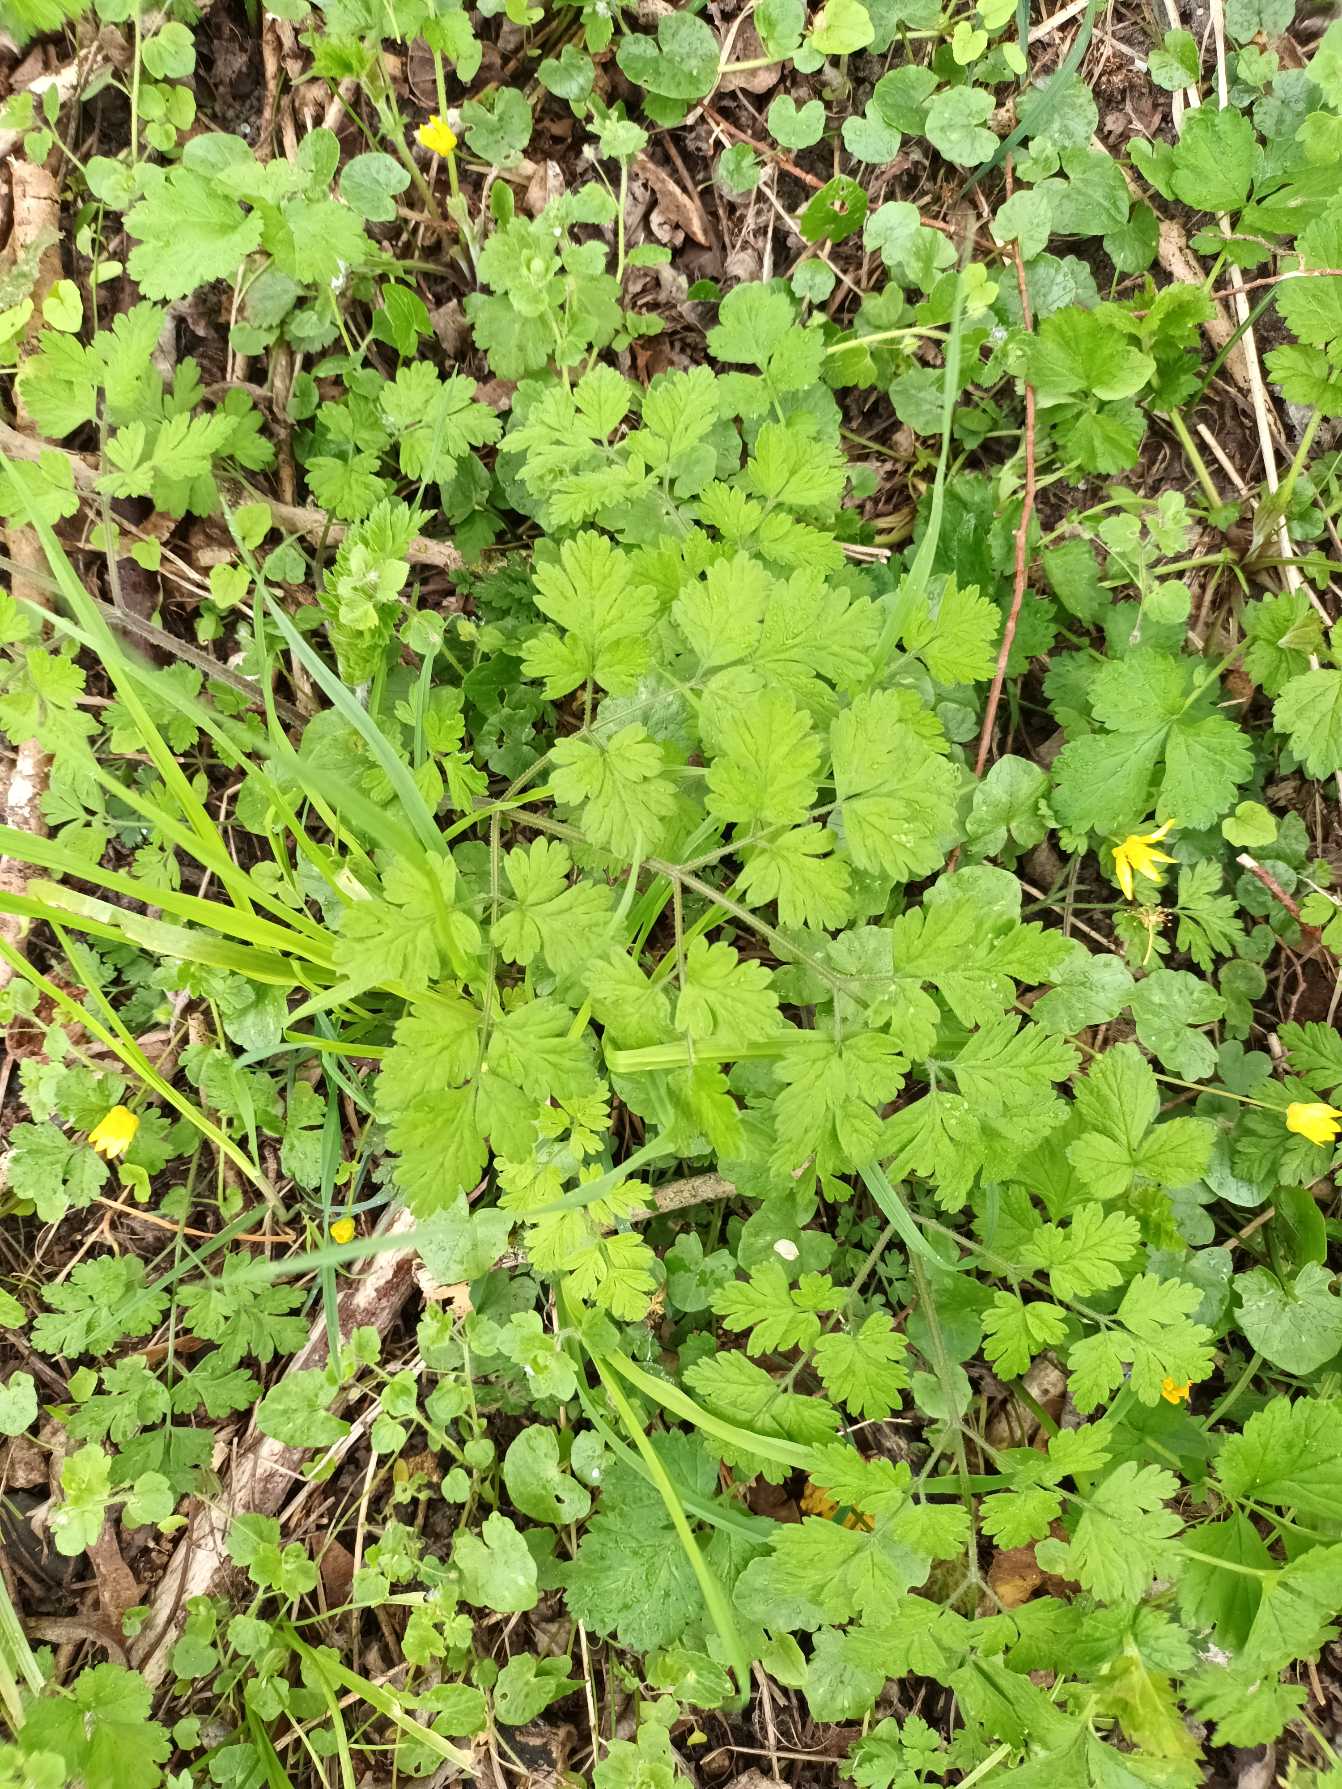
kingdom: Plantae
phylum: Tracheophyta
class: Magnoliopsida
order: Apiales
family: Apiaceae
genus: Chaerophyllum
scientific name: Chaerophyllum temulum
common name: Almindelig hulsvøb
